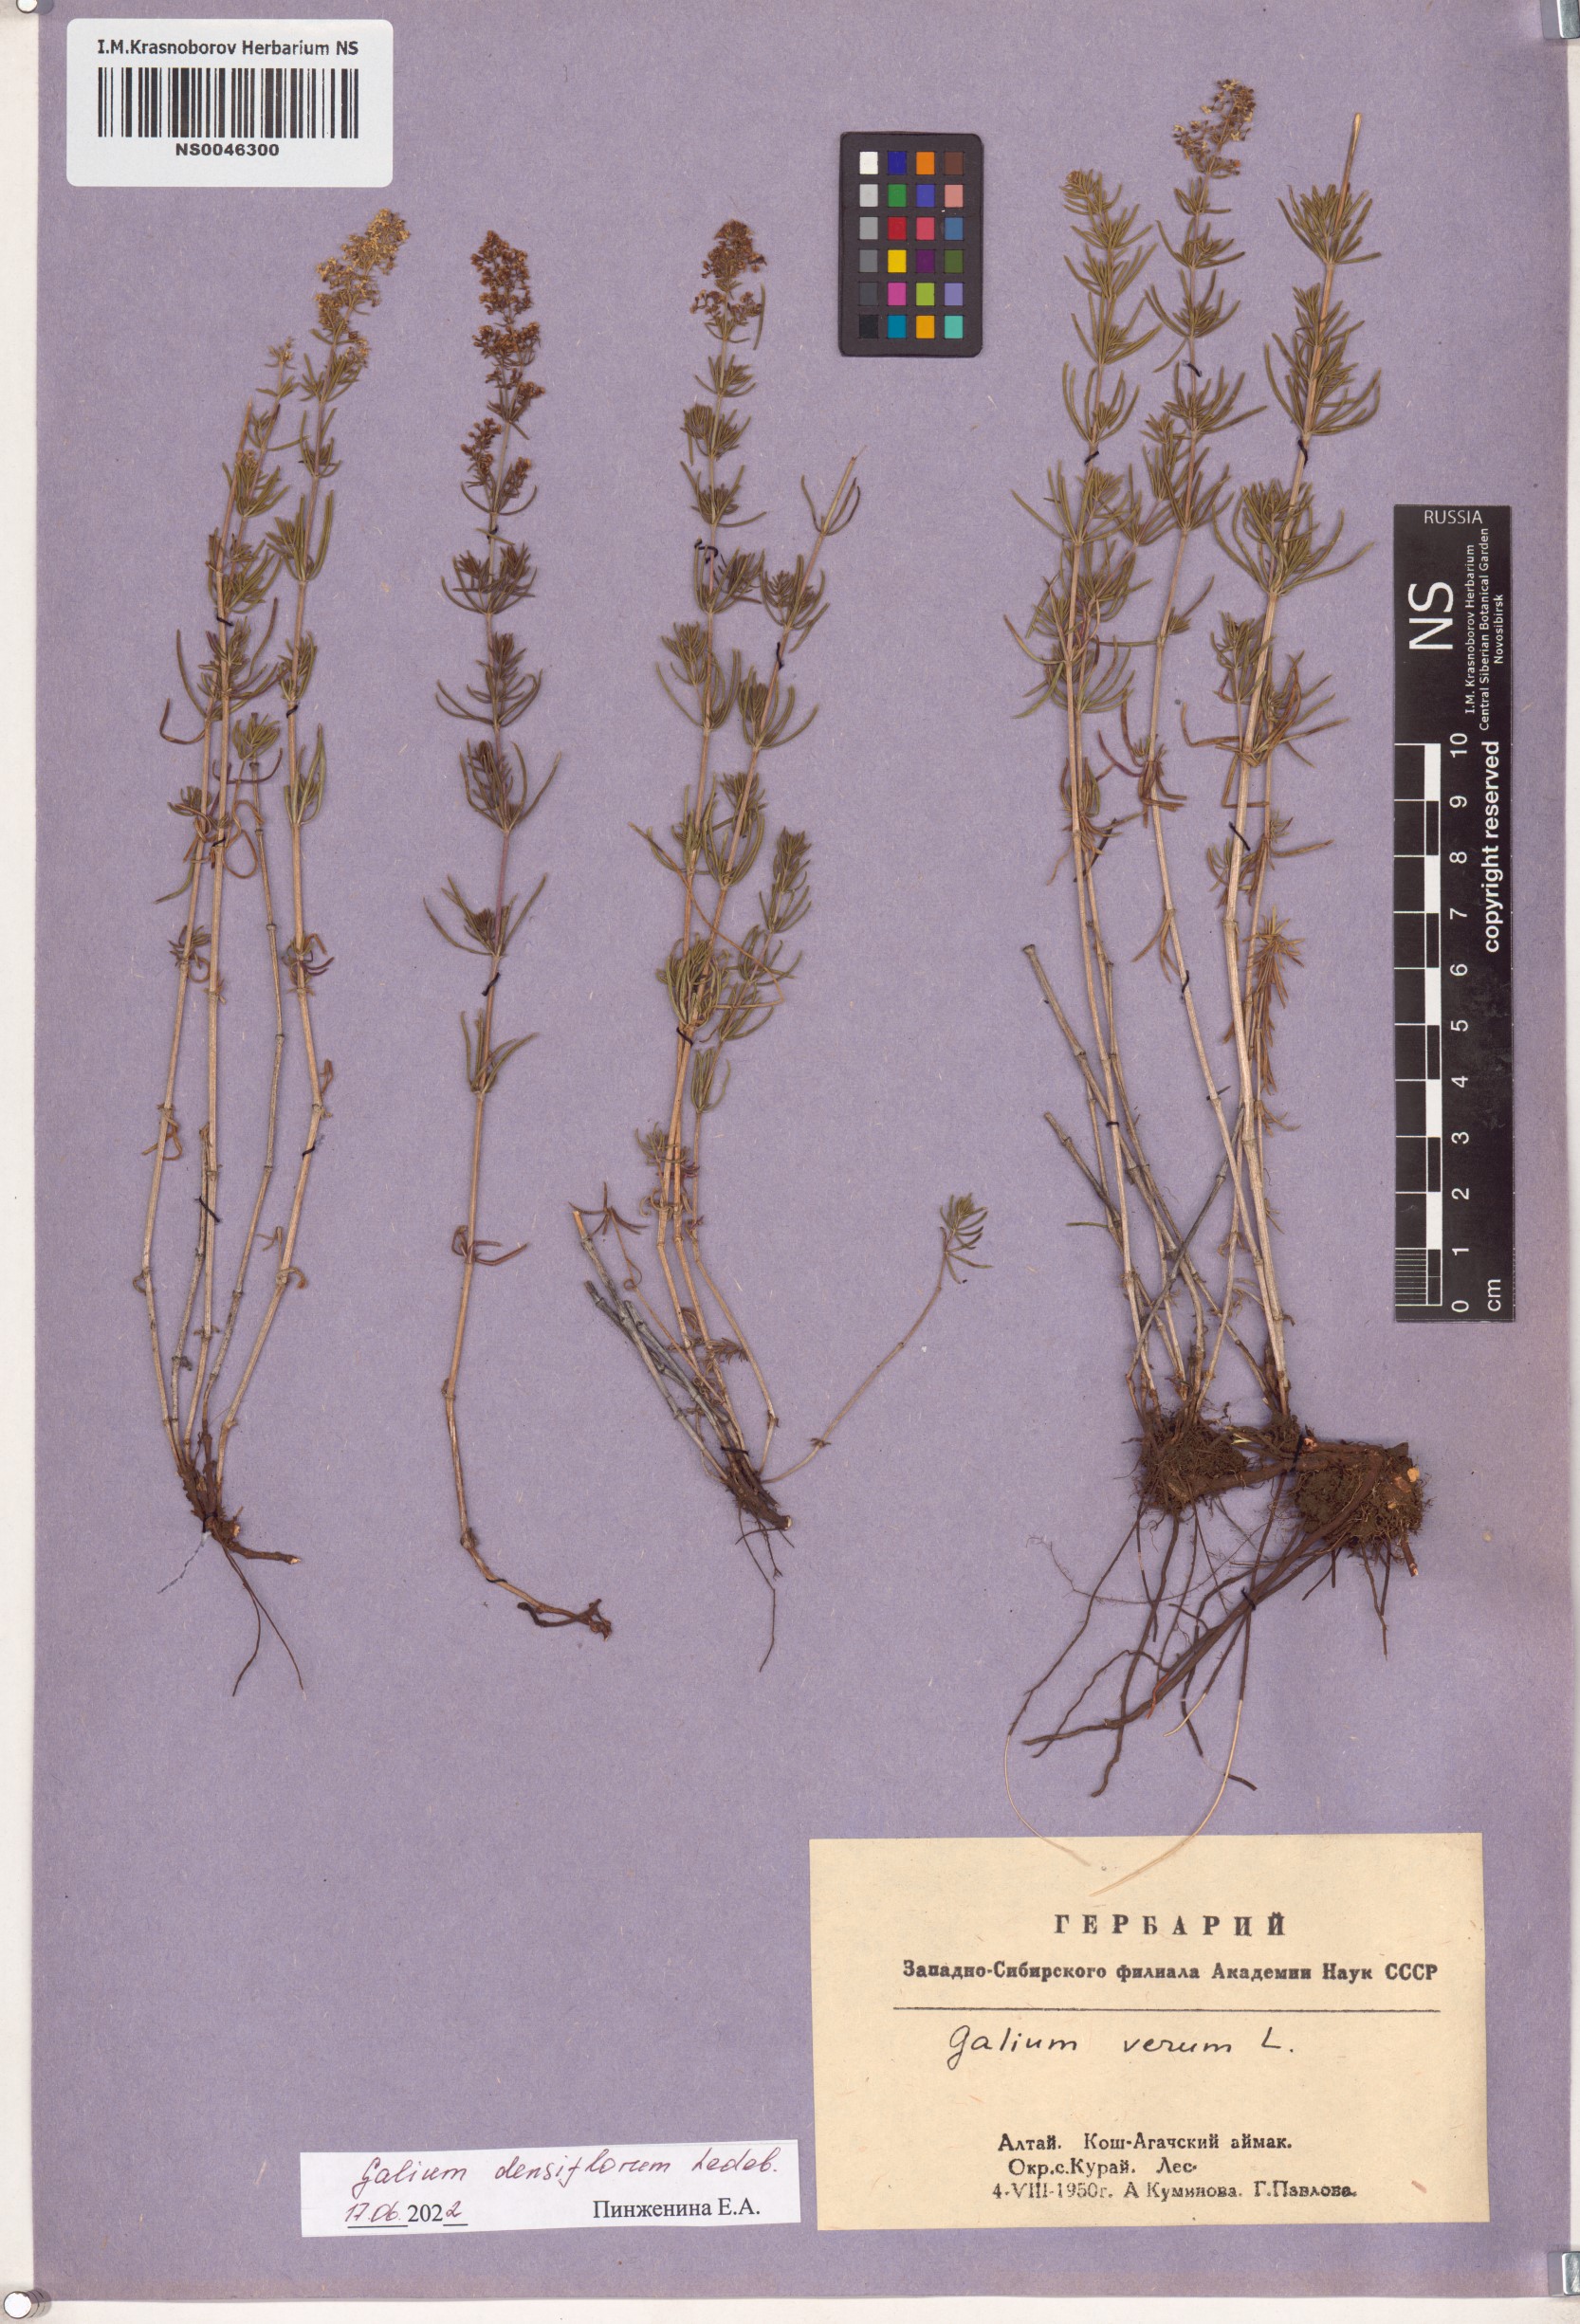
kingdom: Plantae
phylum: Tracheophyta
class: Magnoliopsida
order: Gentianales
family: Rubiaceae
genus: Galium
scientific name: Galium densiflorum
